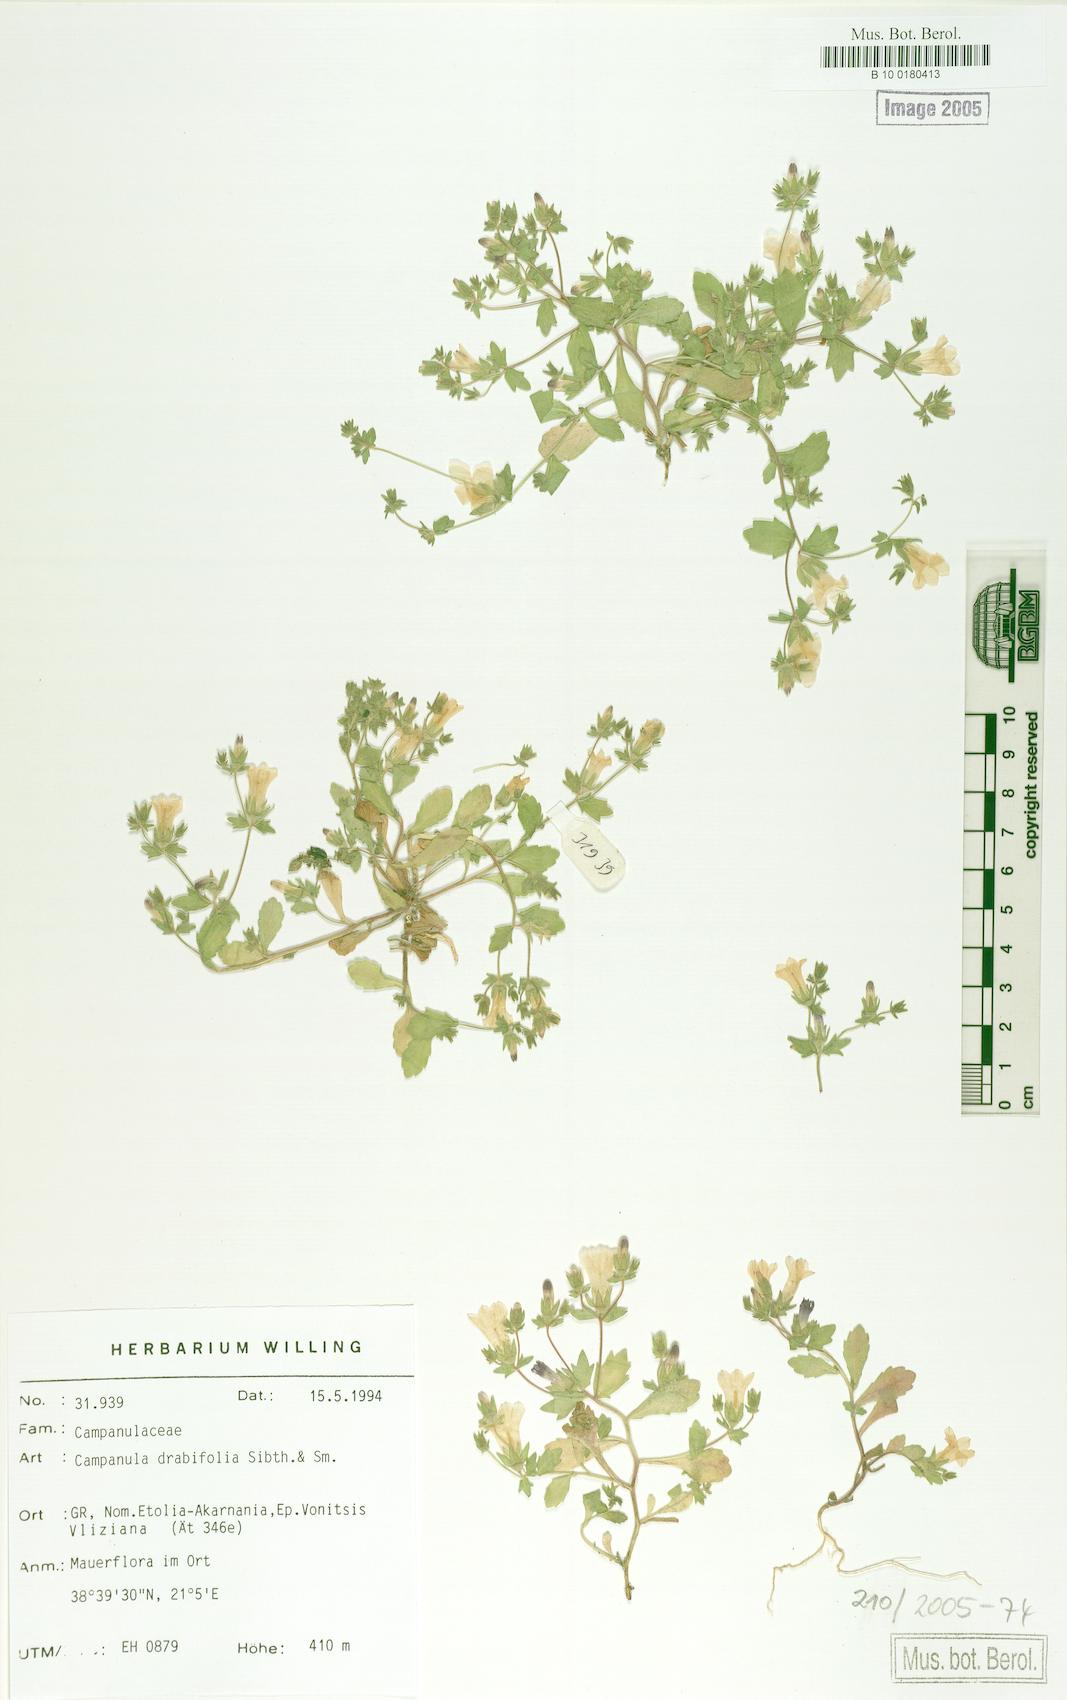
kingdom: Plantae
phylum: Tracheophyta
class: Magnoliopsida
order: Asterales
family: Campanulaceae
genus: Campanula
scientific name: Campanula drabifolia
